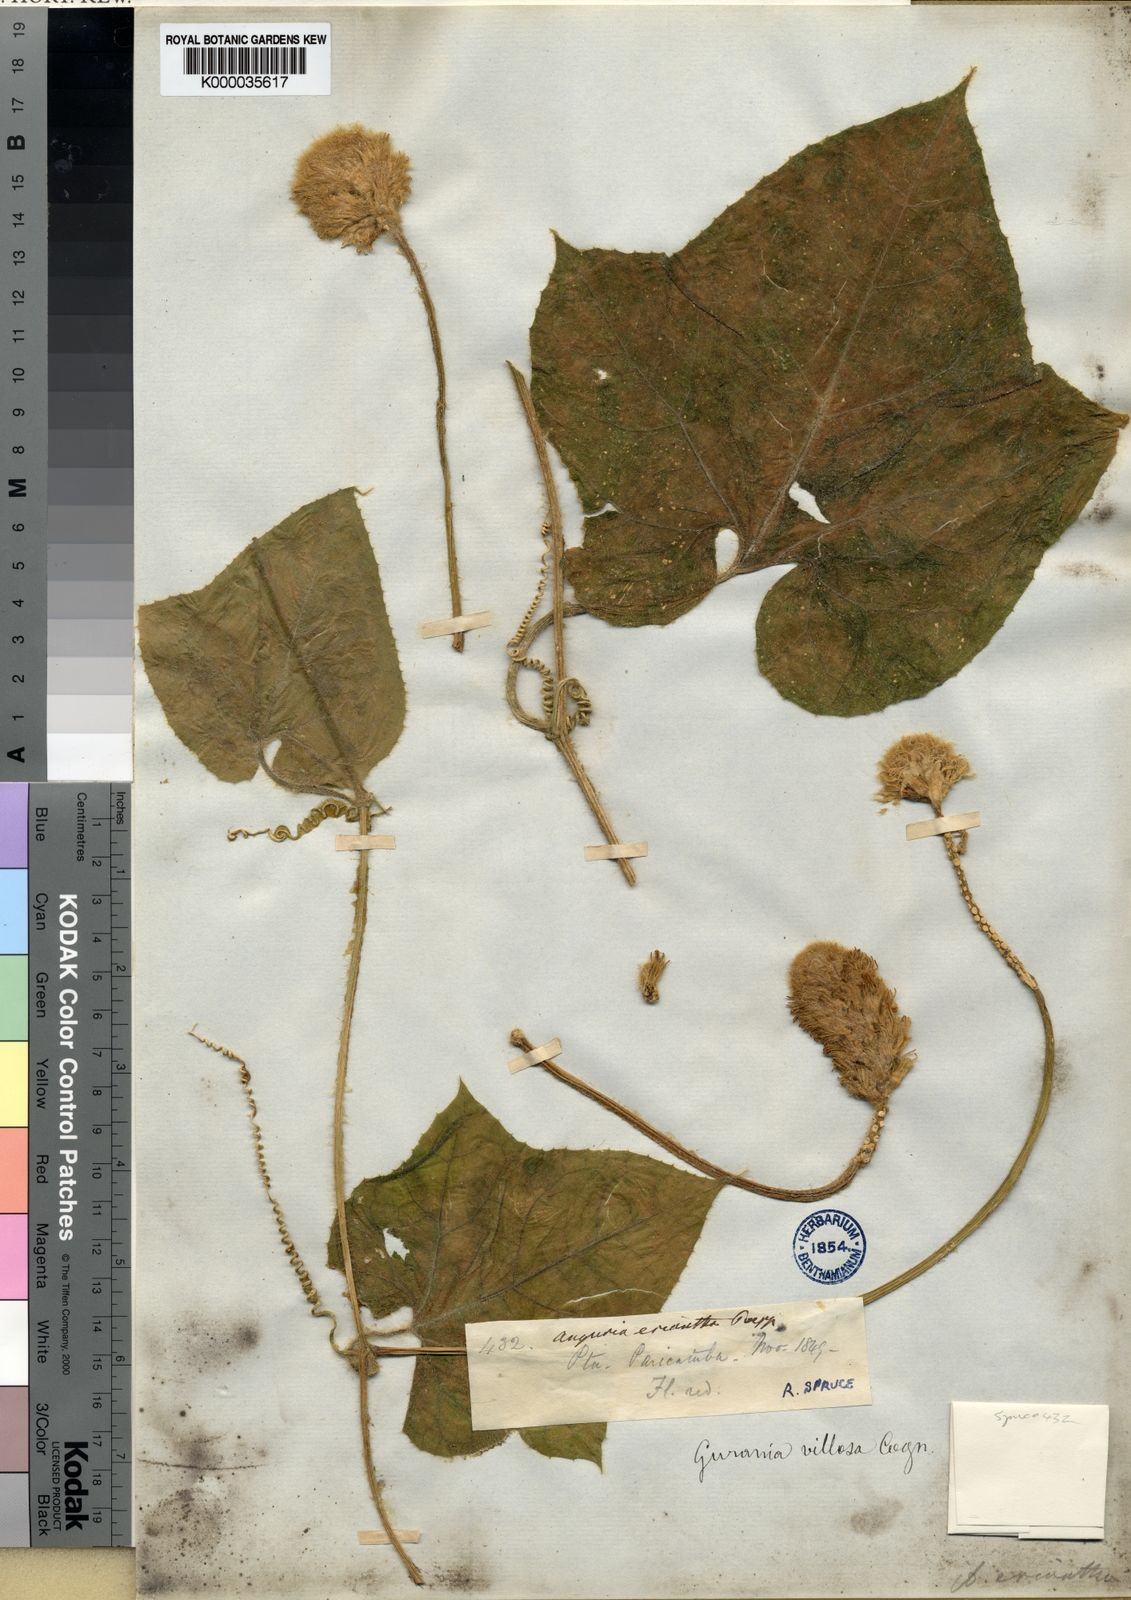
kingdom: Plantae
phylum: Tracheophyta
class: Magnoliopsida
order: Cucurbitales
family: Cucurbitaceae
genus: Gurania
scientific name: Gurania eriantha
